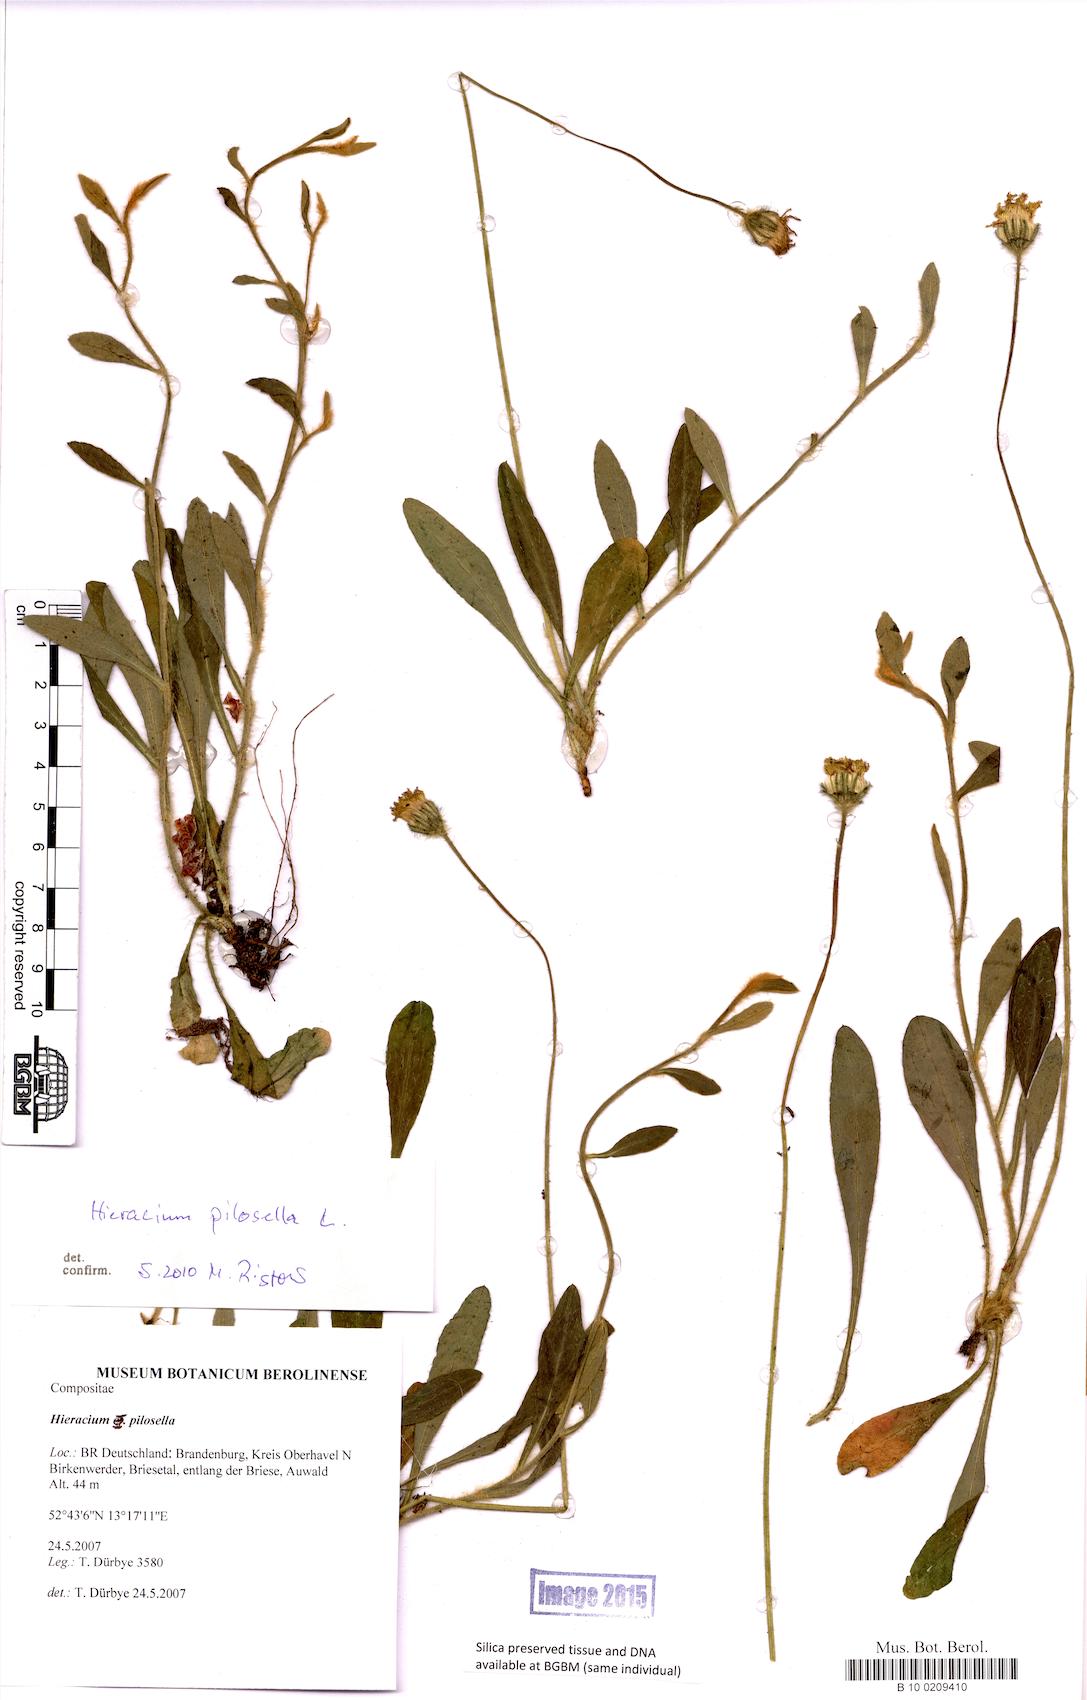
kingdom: Plantae
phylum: Tracheophyta
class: Magnoliopsida
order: Asterales
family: Asteraceae
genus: Pilosella
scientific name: Pilosella officinarum
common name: Mouse-ear hawkweed
